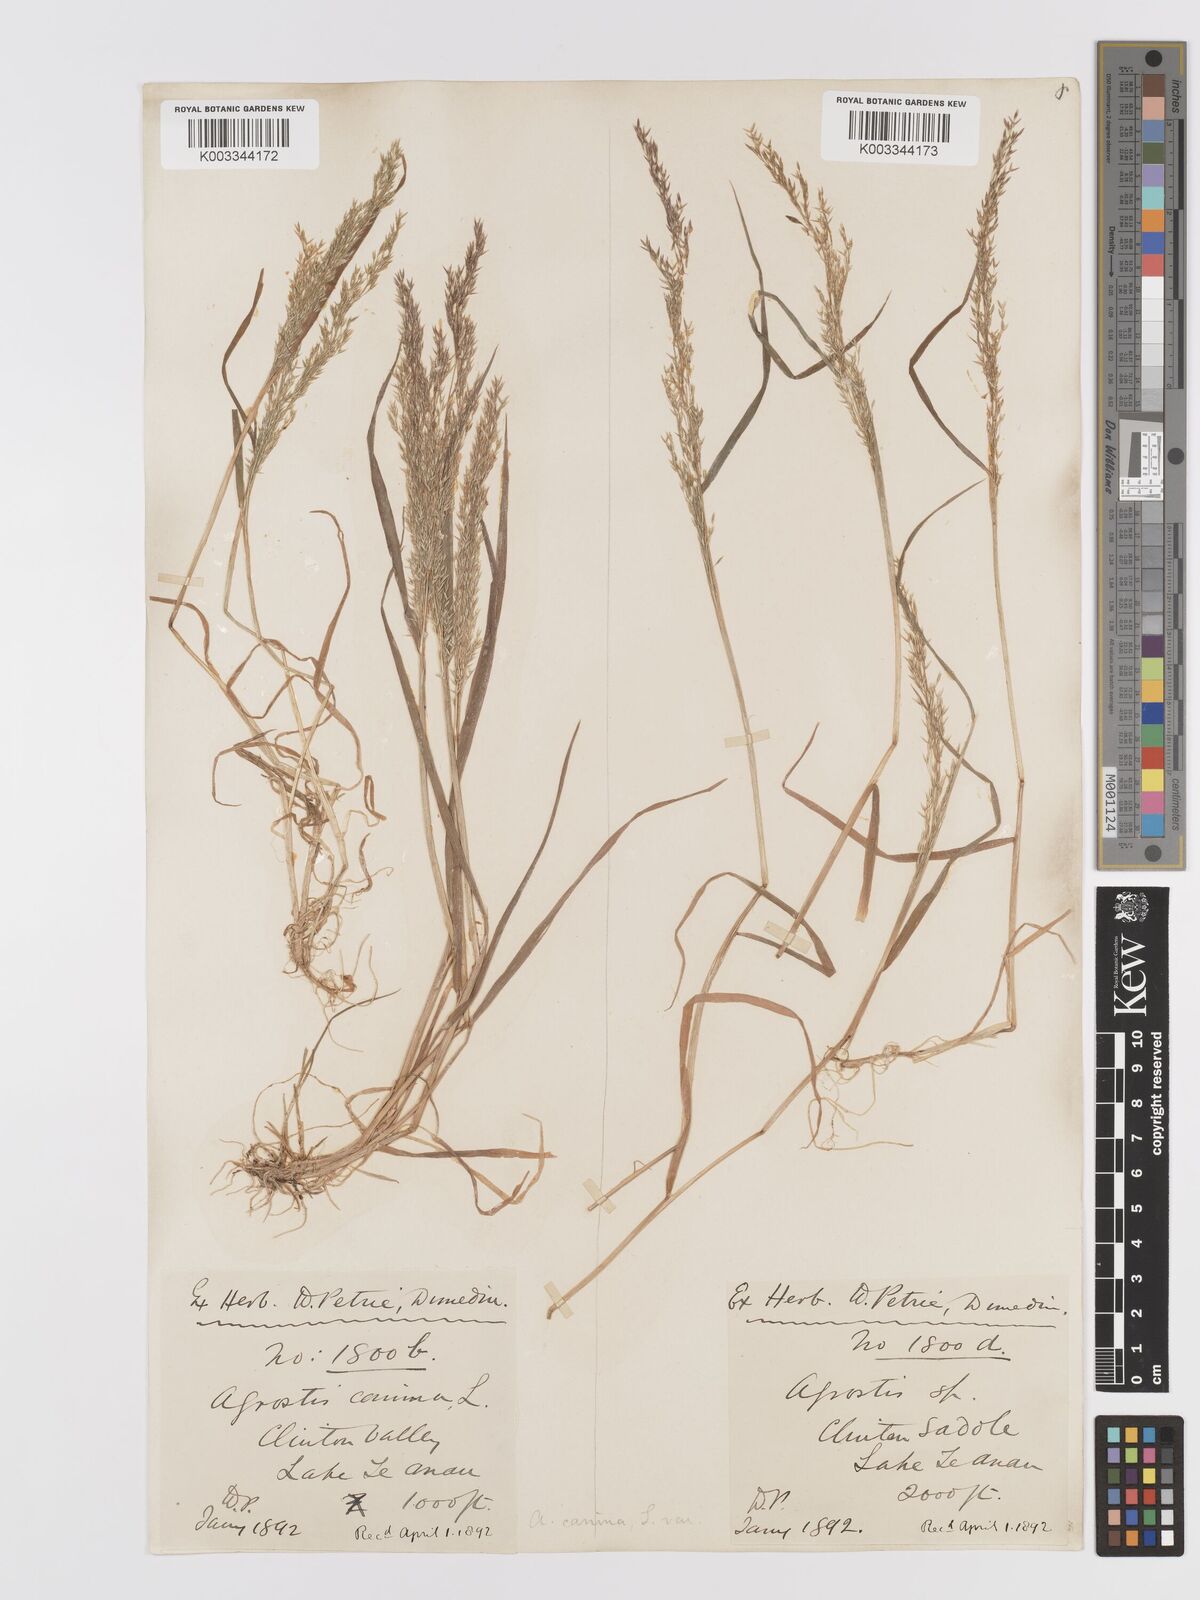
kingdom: Plantae
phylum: Tracheophyta
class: Liliopsida
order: Poales
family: Poaceae
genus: Agrostis
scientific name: Agrostis personata
